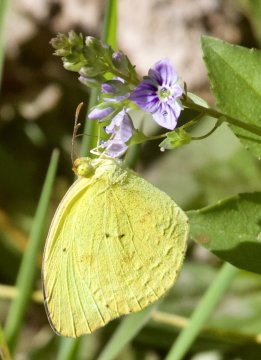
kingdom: Animalia
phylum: Arthropoda
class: Insecta
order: Lepidoptera
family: Pieridae
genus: Pyrisitia
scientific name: Pyrisitia nise
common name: Mimosa Yellow
